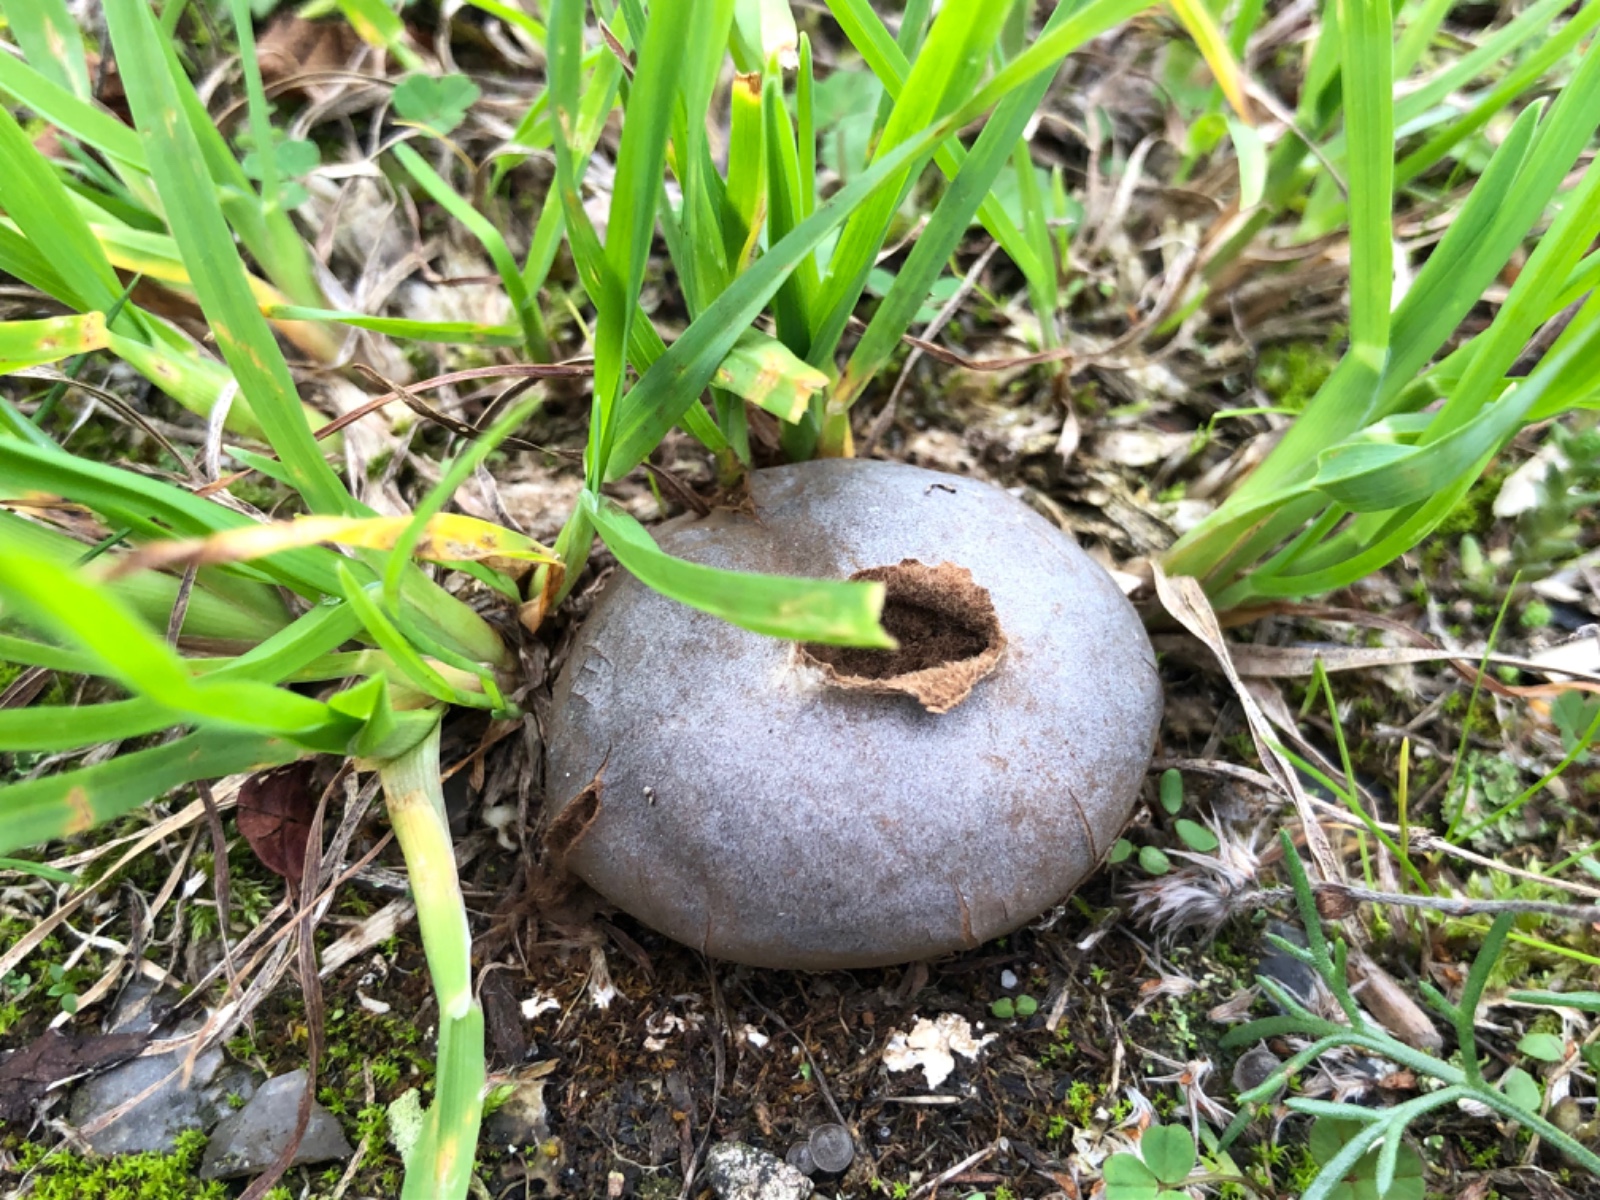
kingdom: Fungi
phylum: Basidiomycota
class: Agaricomycetes
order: Agaricales
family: Lycoperdaceae
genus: Bovista
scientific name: Bovista plumbea
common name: blygrå bovist
